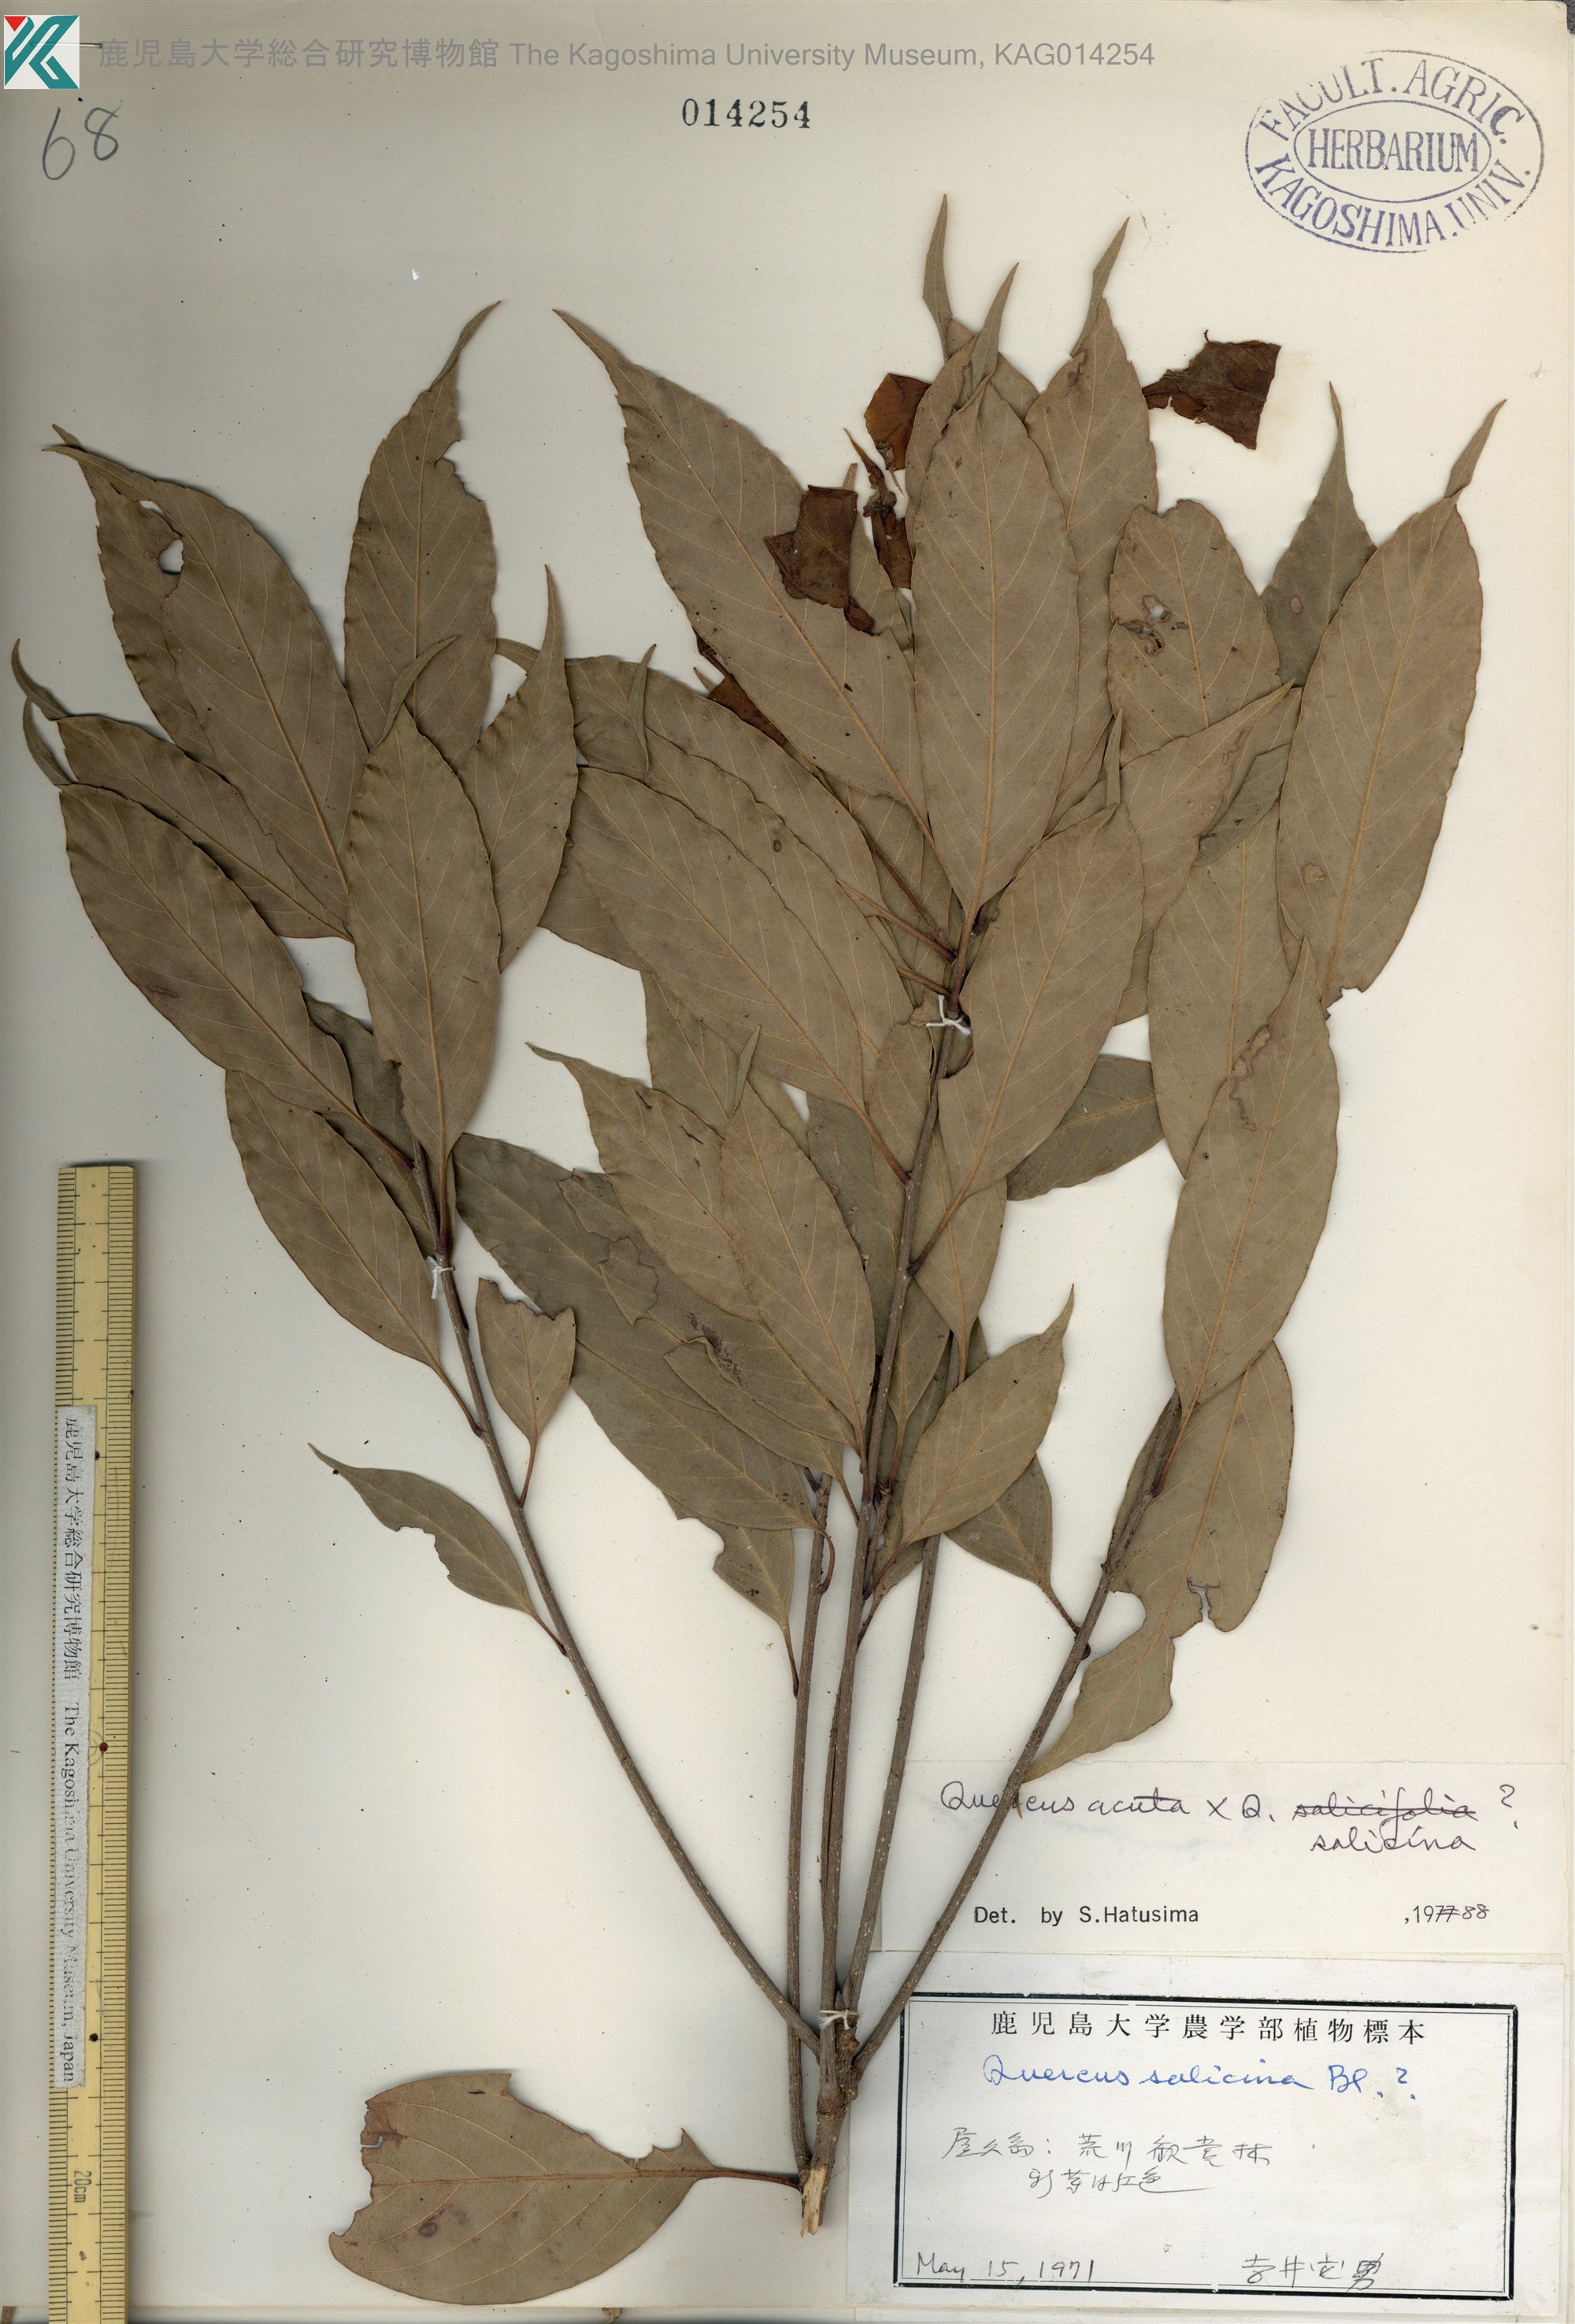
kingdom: Plantae
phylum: Tracheophyta
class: Magnoliopsida
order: Fagales
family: Fagaceae
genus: Quercus
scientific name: Quercus
